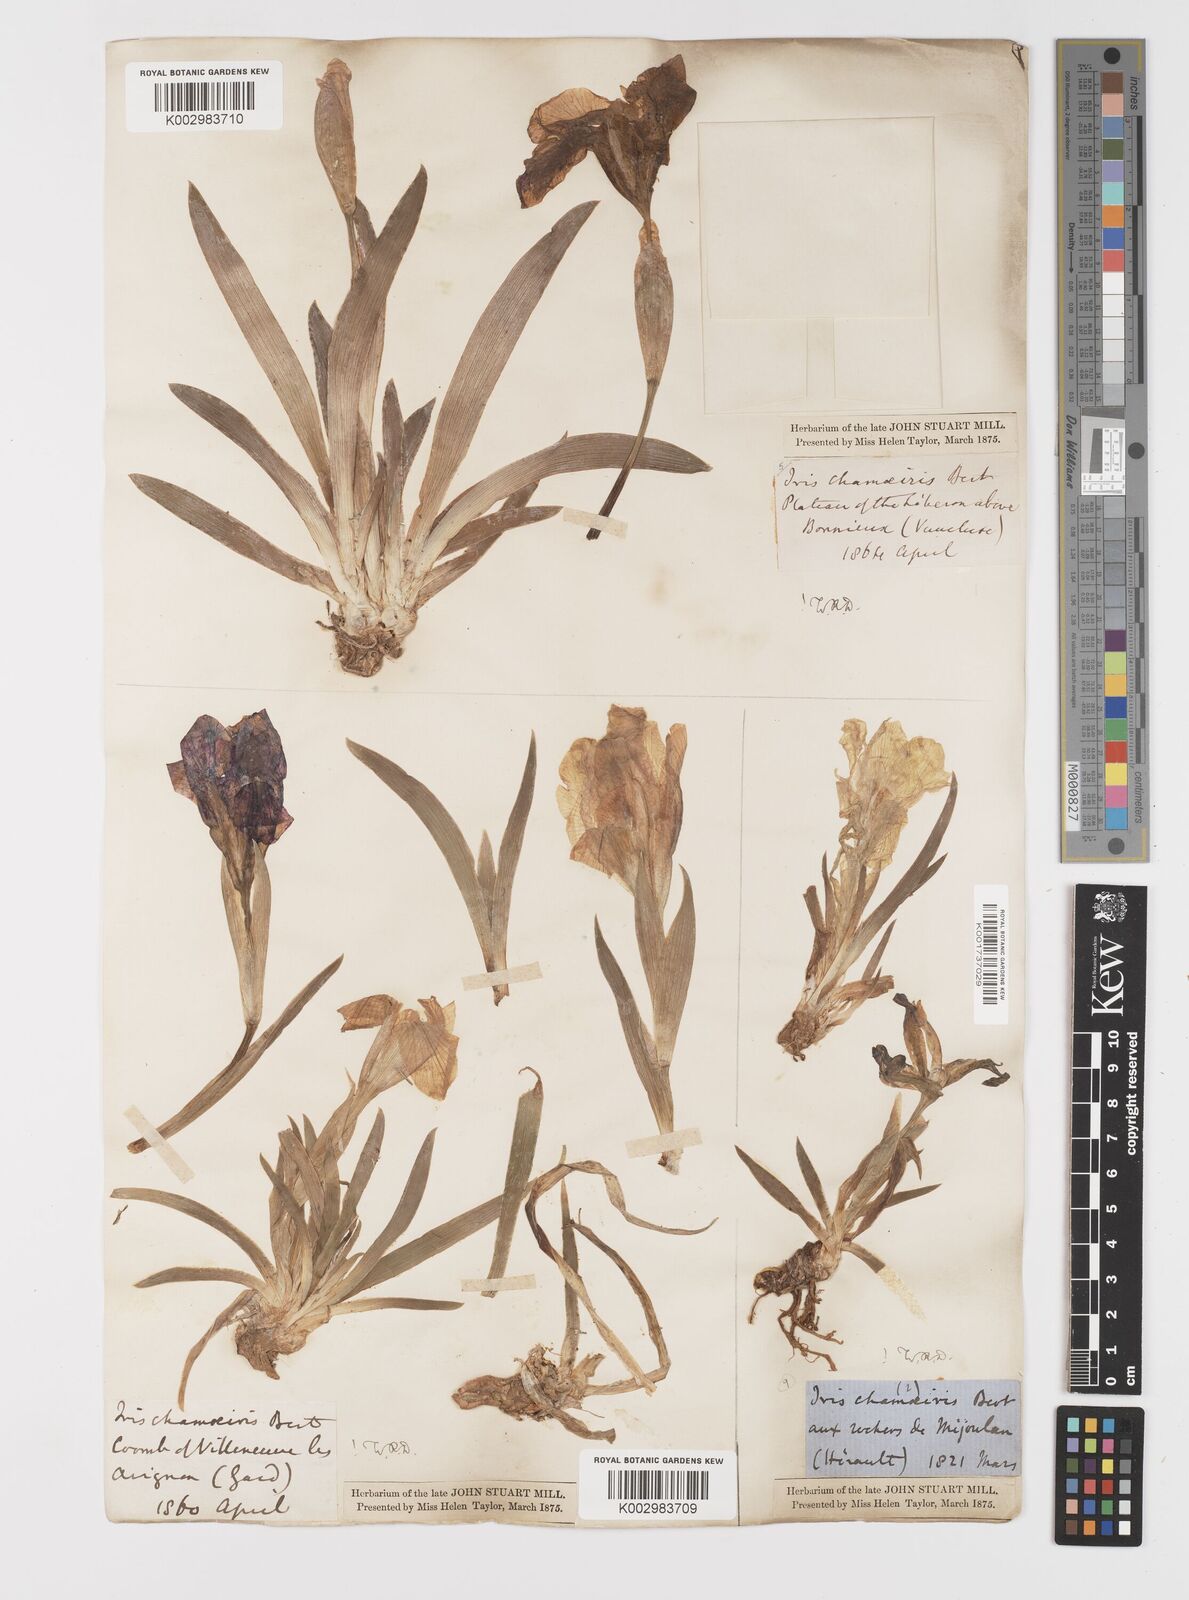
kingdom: Plantae
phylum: Tracheophyta
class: Liliopsida
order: Asparagales
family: Iridaceae
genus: Iris
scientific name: Iris lutescens
